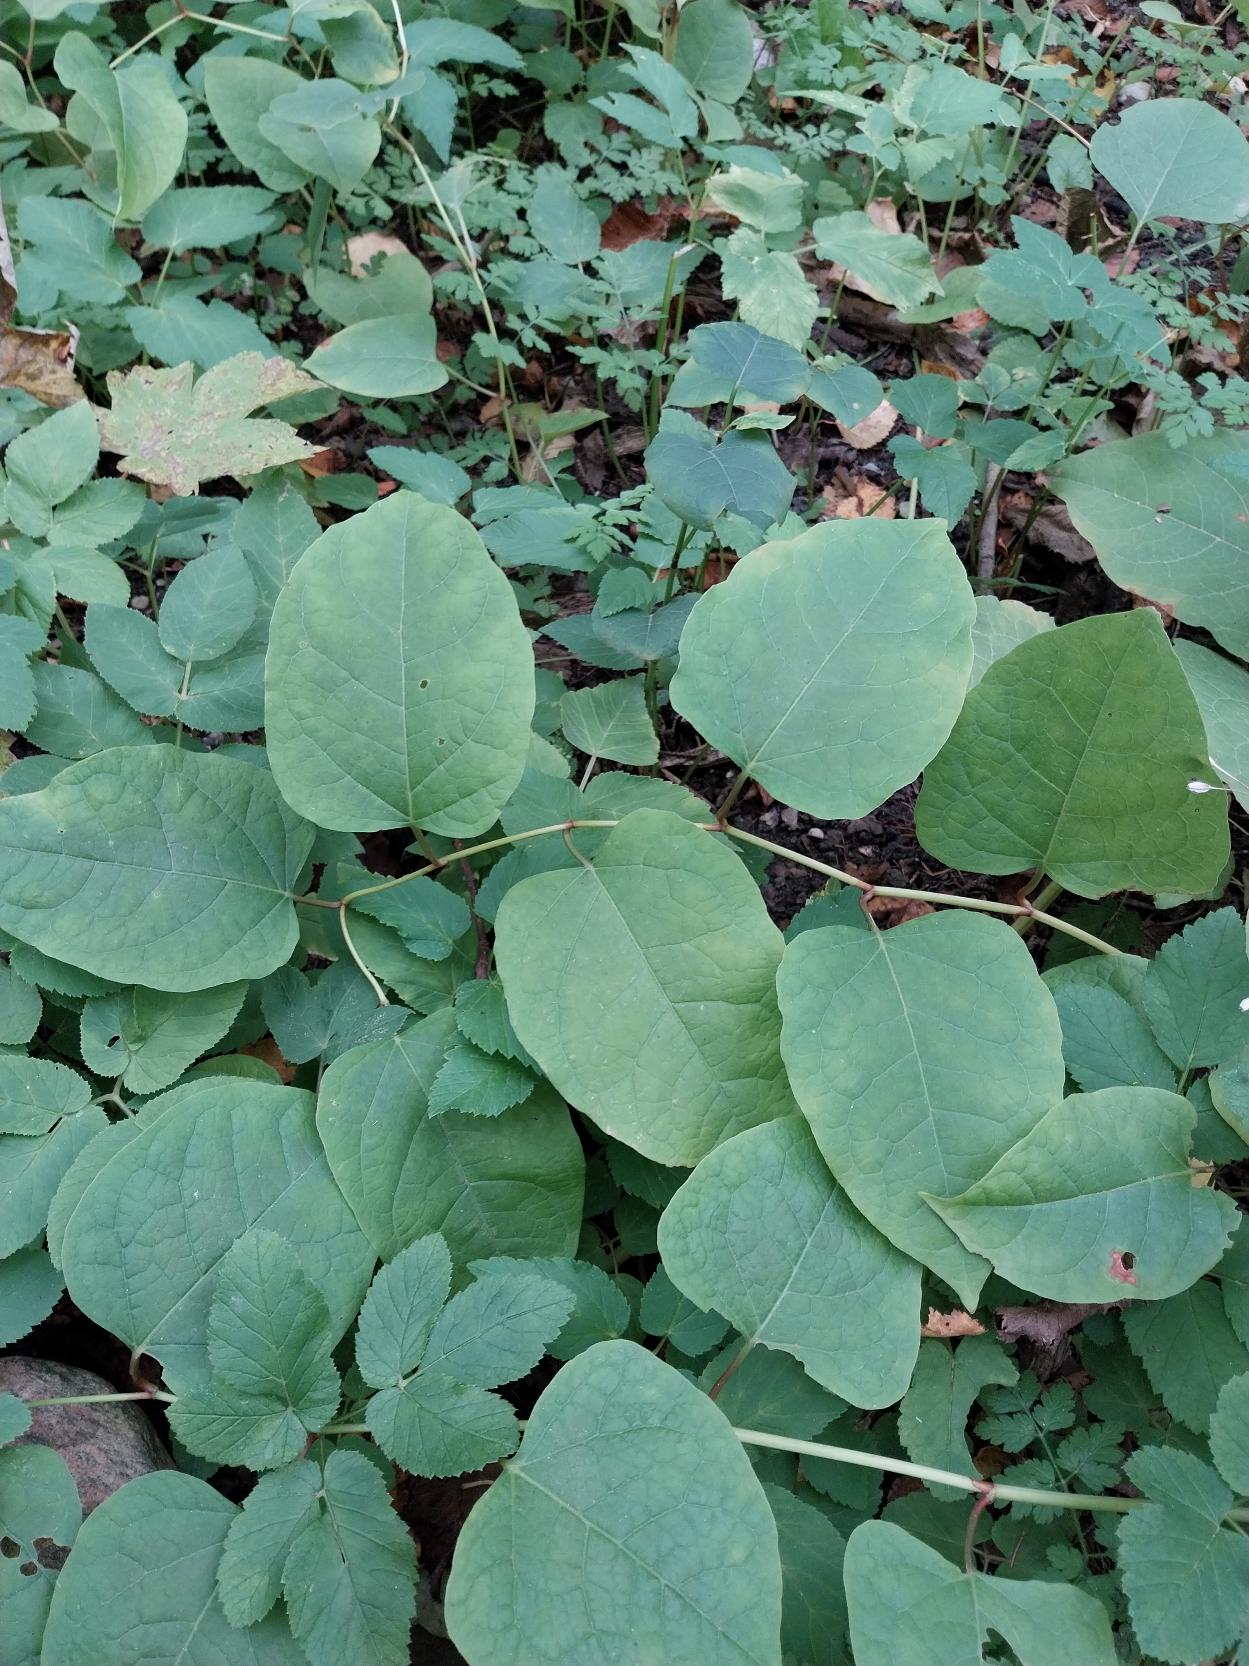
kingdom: Plantae
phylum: Tracheophyta
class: Magnoliopsida
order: Caryophyllales
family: Polygonaceae
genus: Reynoutria
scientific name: Reynoutria japonica
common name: Japan-pileurt
